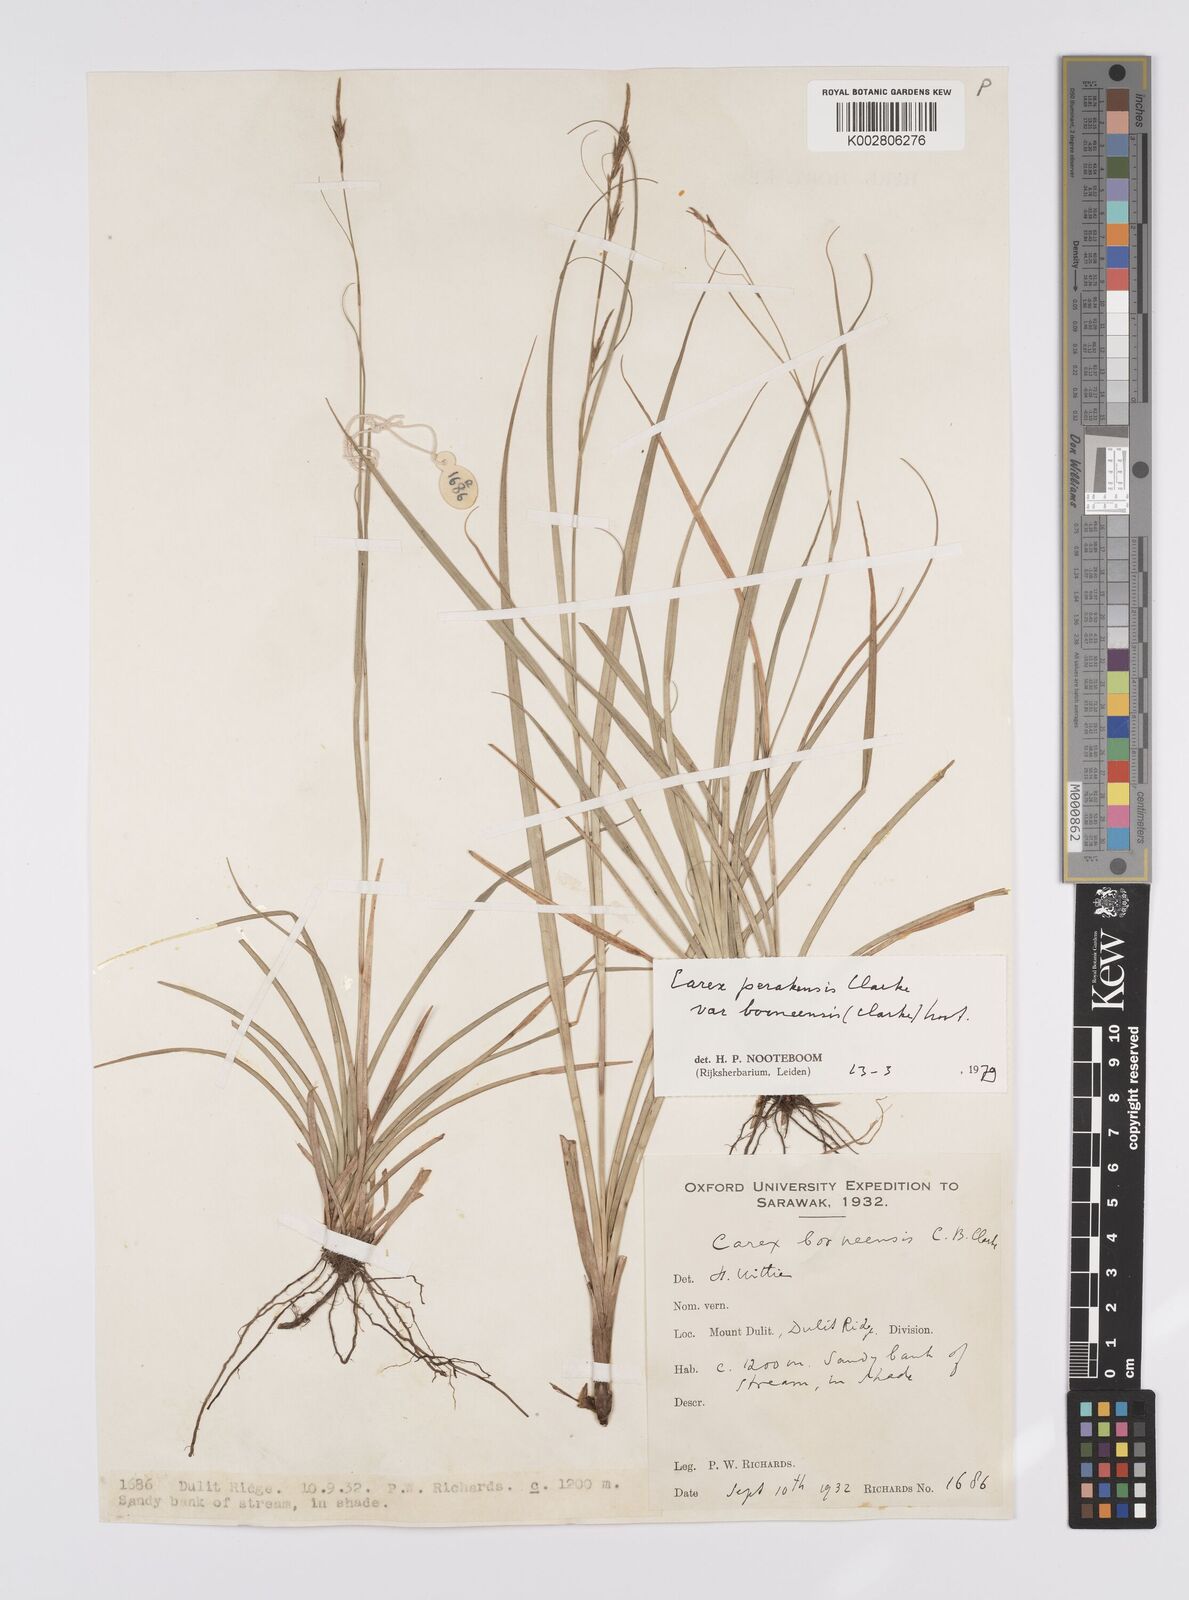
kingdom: Plantae
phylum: Tracheophyta
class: Liliopsida
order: Poales
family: Cyperaceae
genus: Carex
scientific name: Carex perakensis
